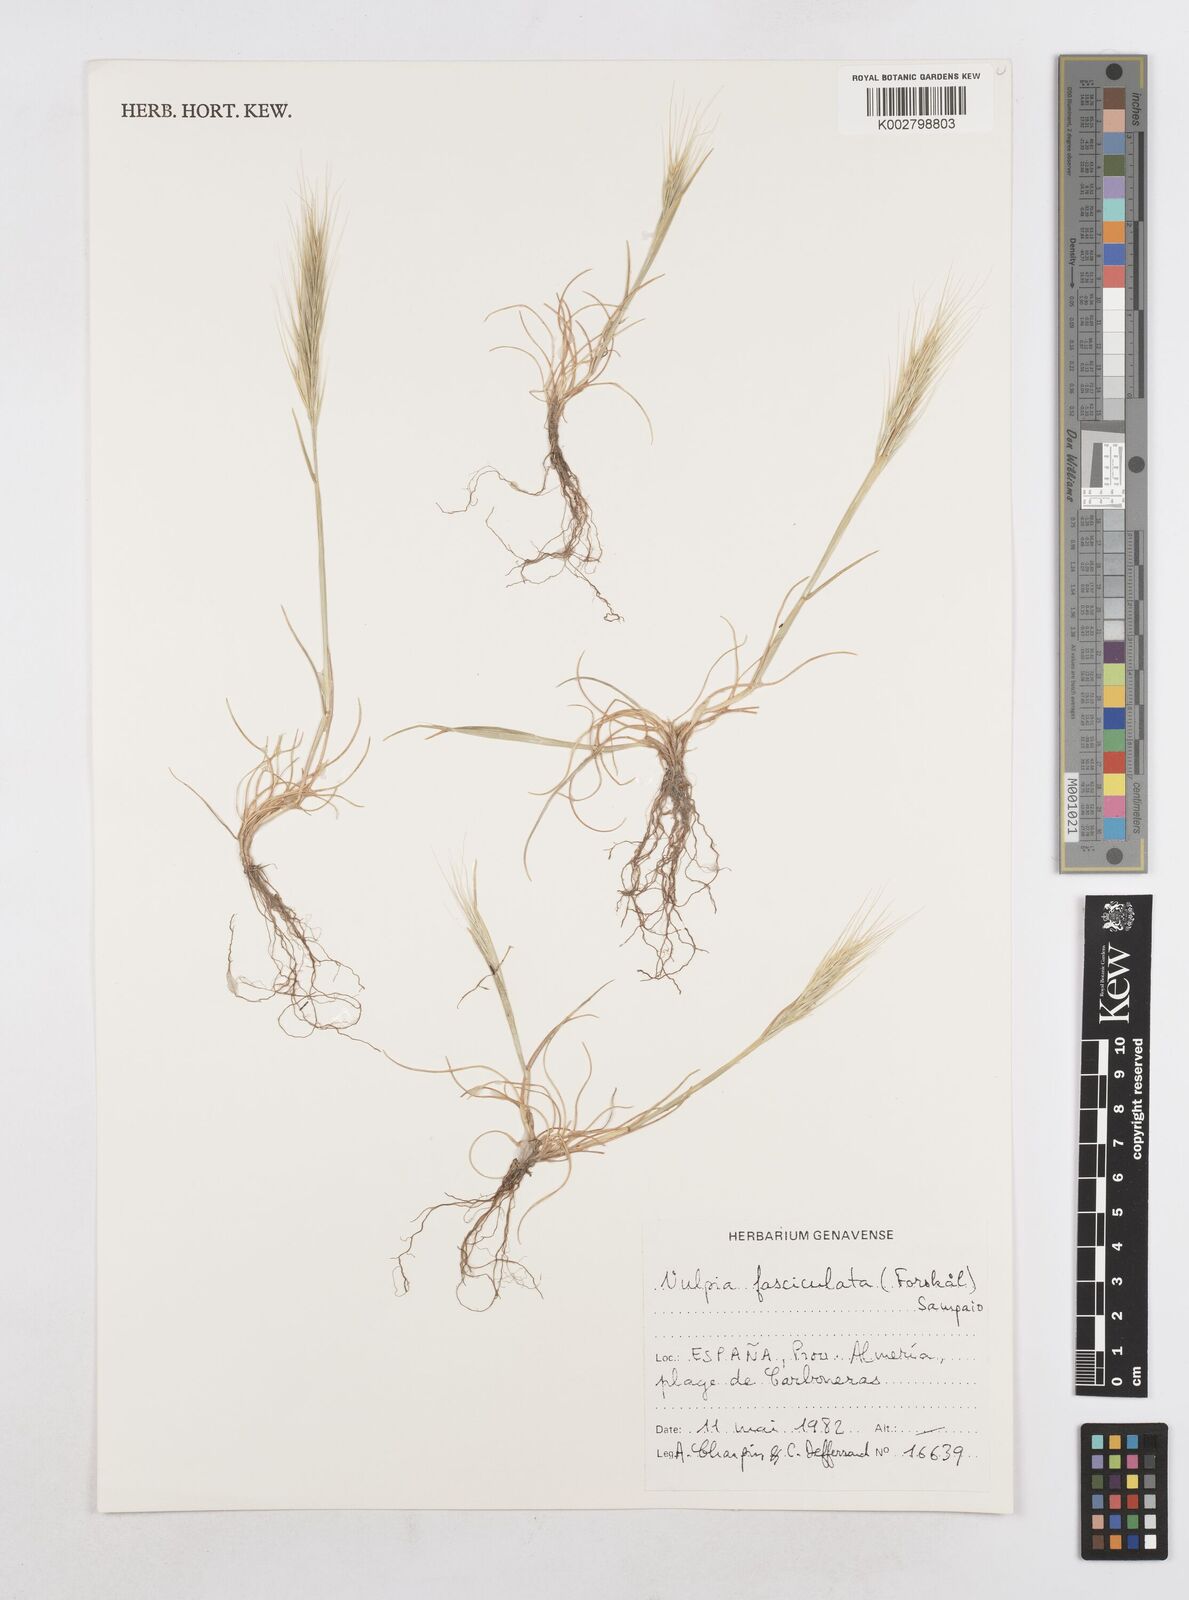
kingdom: Plantae
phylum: Tracheophyta
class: Liliopsida
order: Poales
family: Poaceae
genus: Festuca
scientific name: Festuca fasciculata
